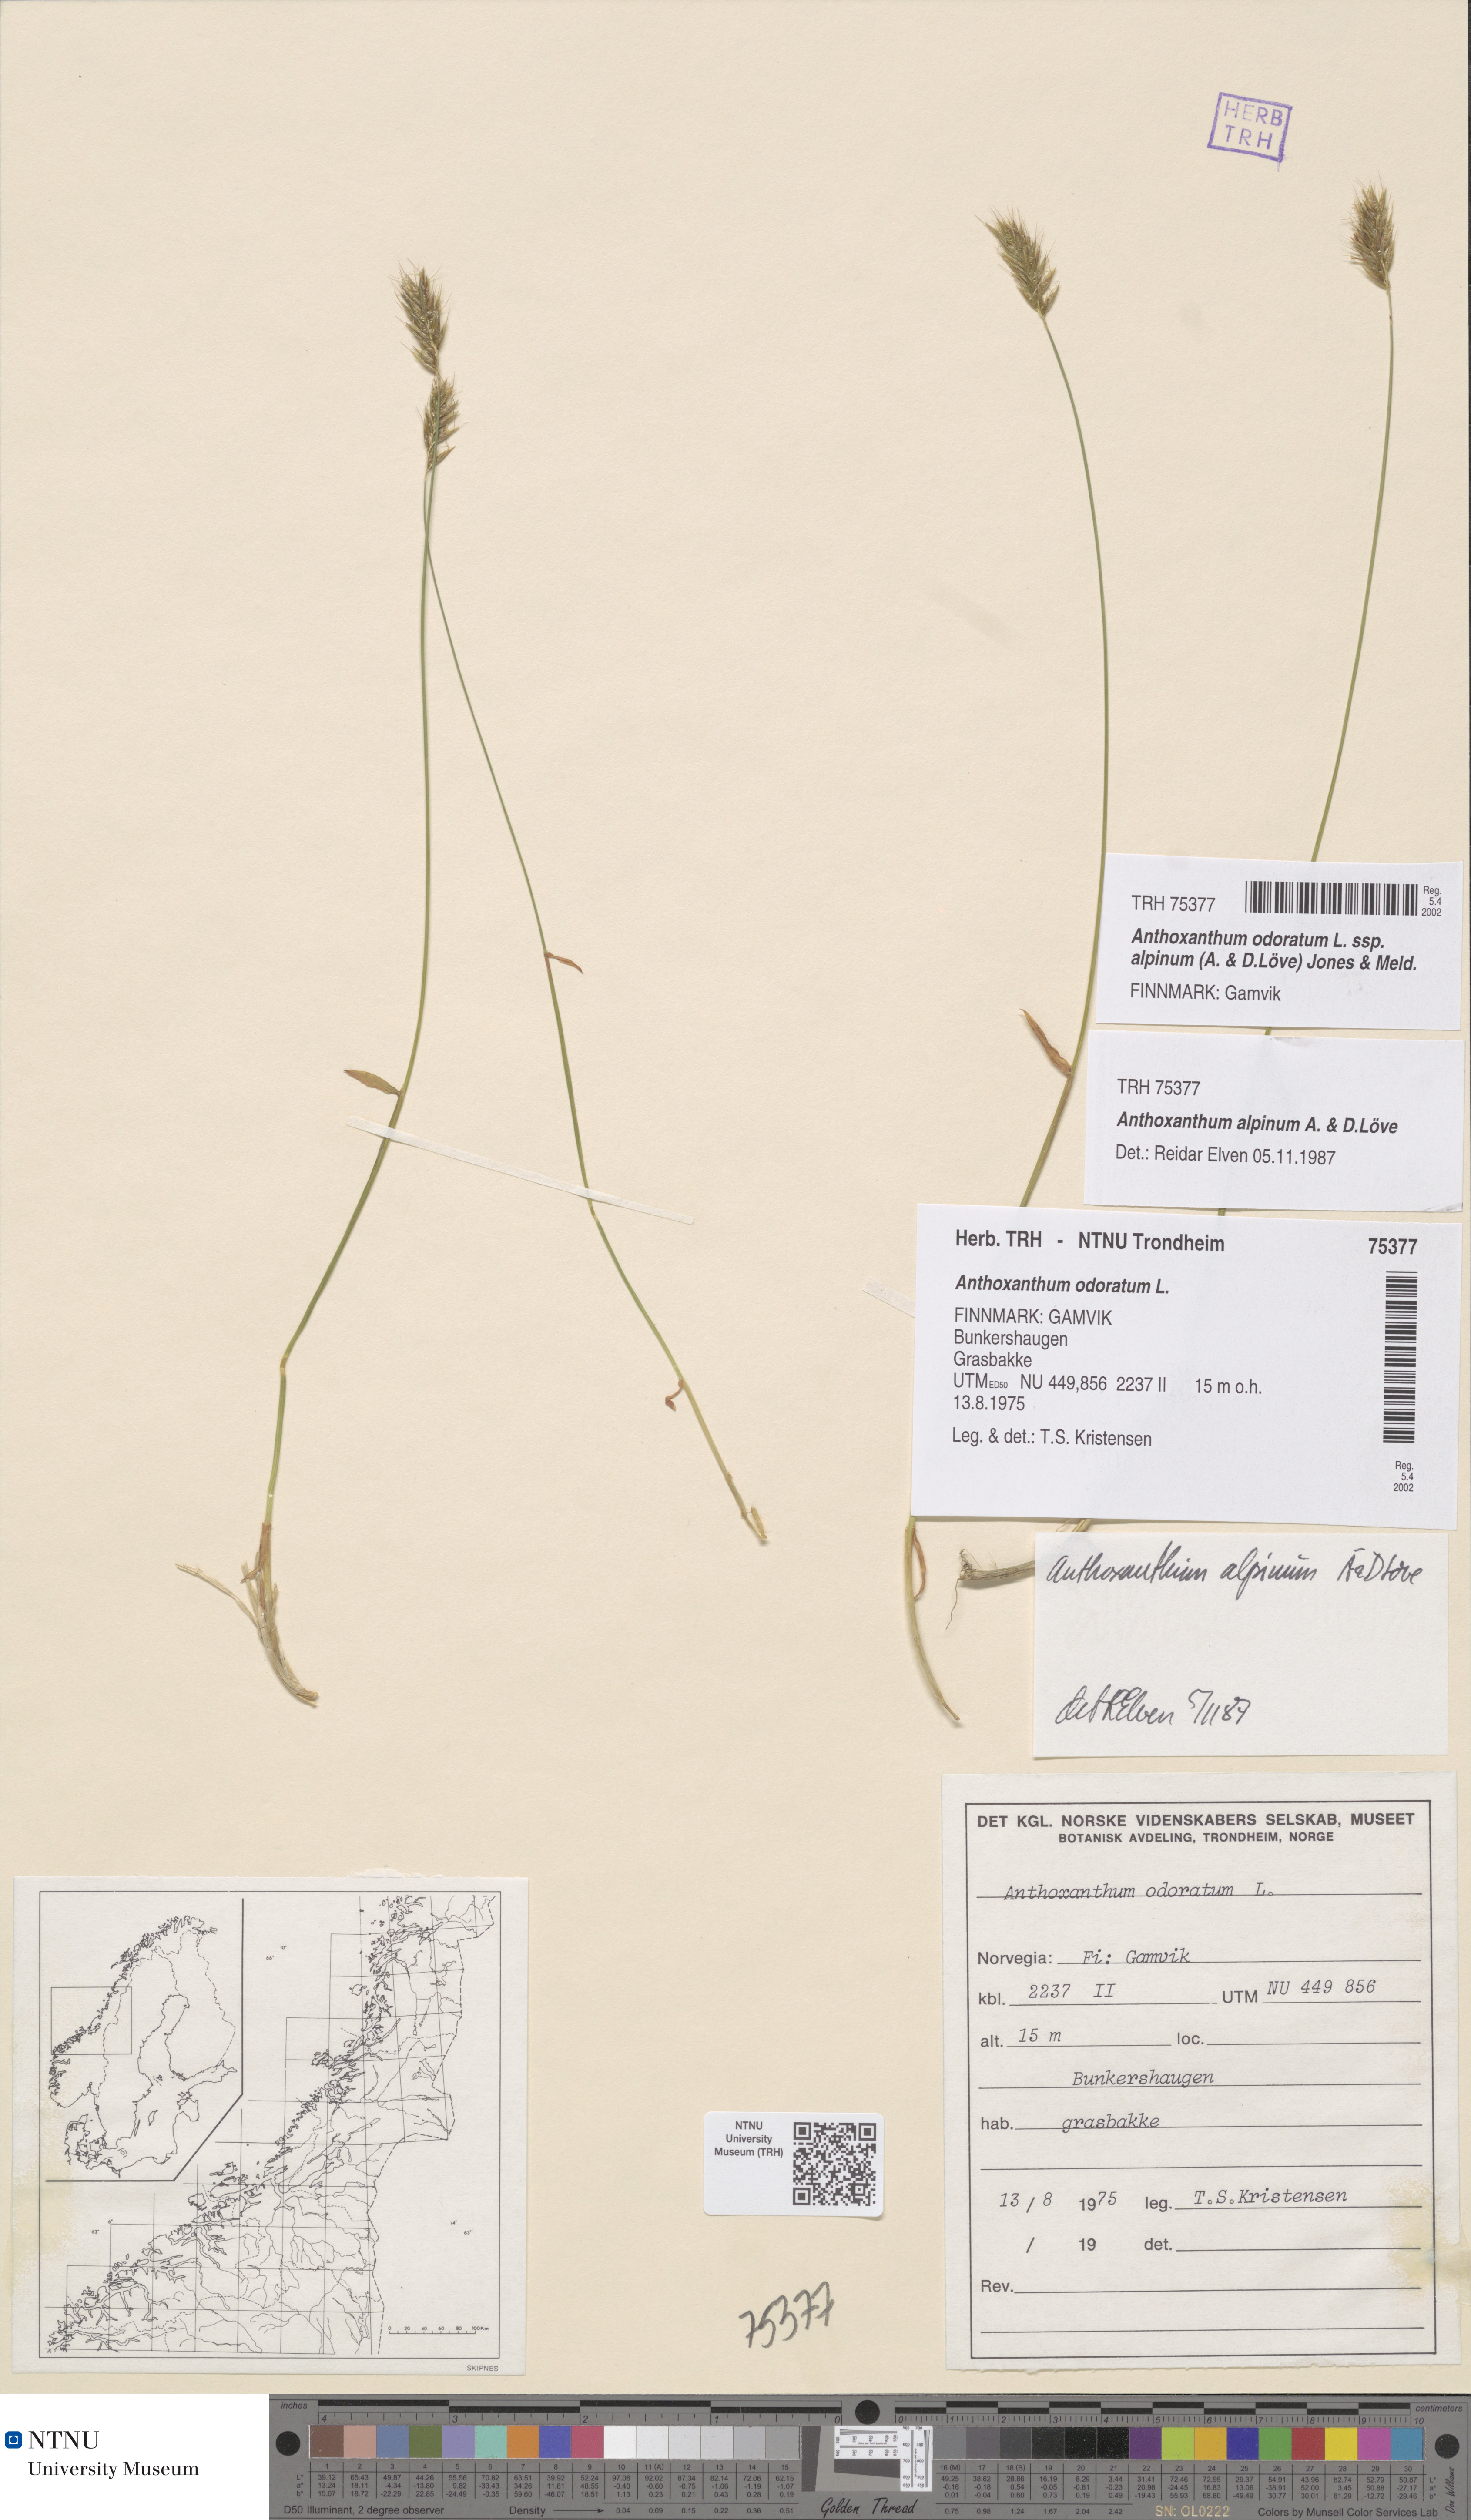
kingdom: Plantae
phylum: Tracheophyta
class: Liliopsida
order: Poales
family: Poaceae
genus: Anthoxanthum
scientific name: Anthoxanthum nipponicum
